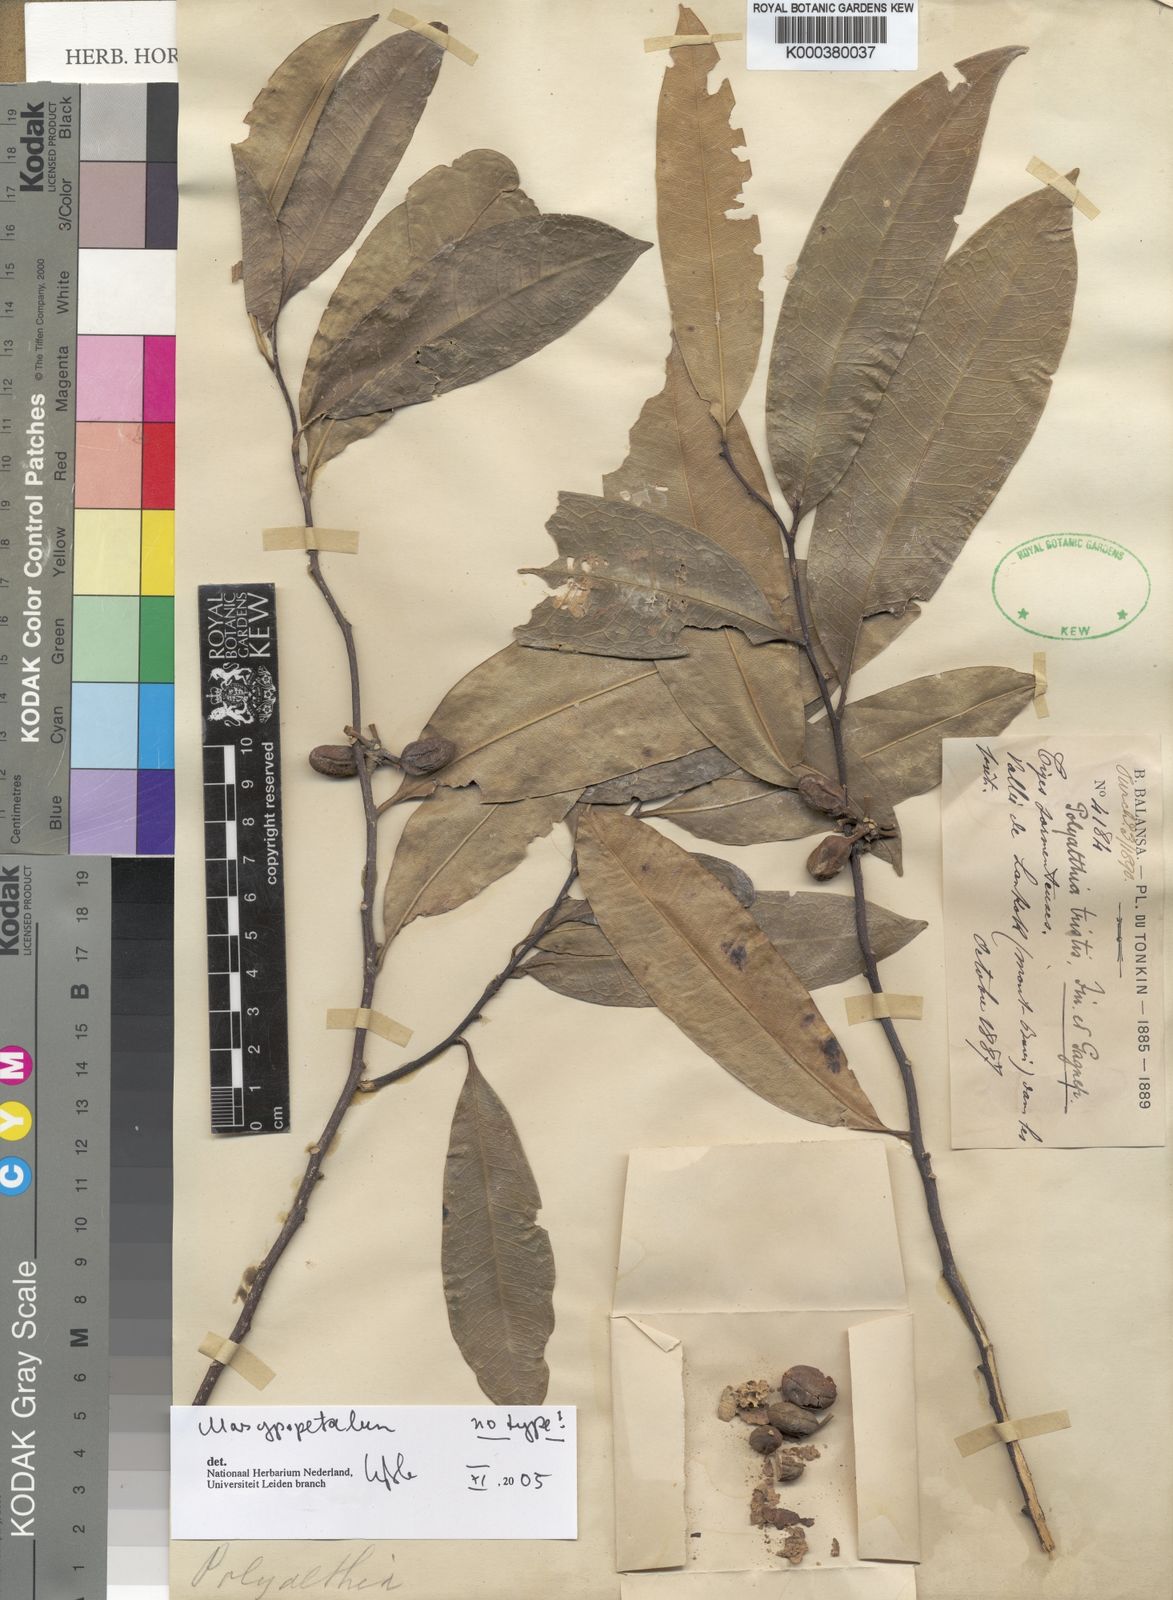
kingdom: Plantae
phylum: Tracheophyta
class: Magnoliopsida
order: Magnoliales
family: Annonaceae
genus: Marsypopetalum
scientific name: Marsypopetalum triste
